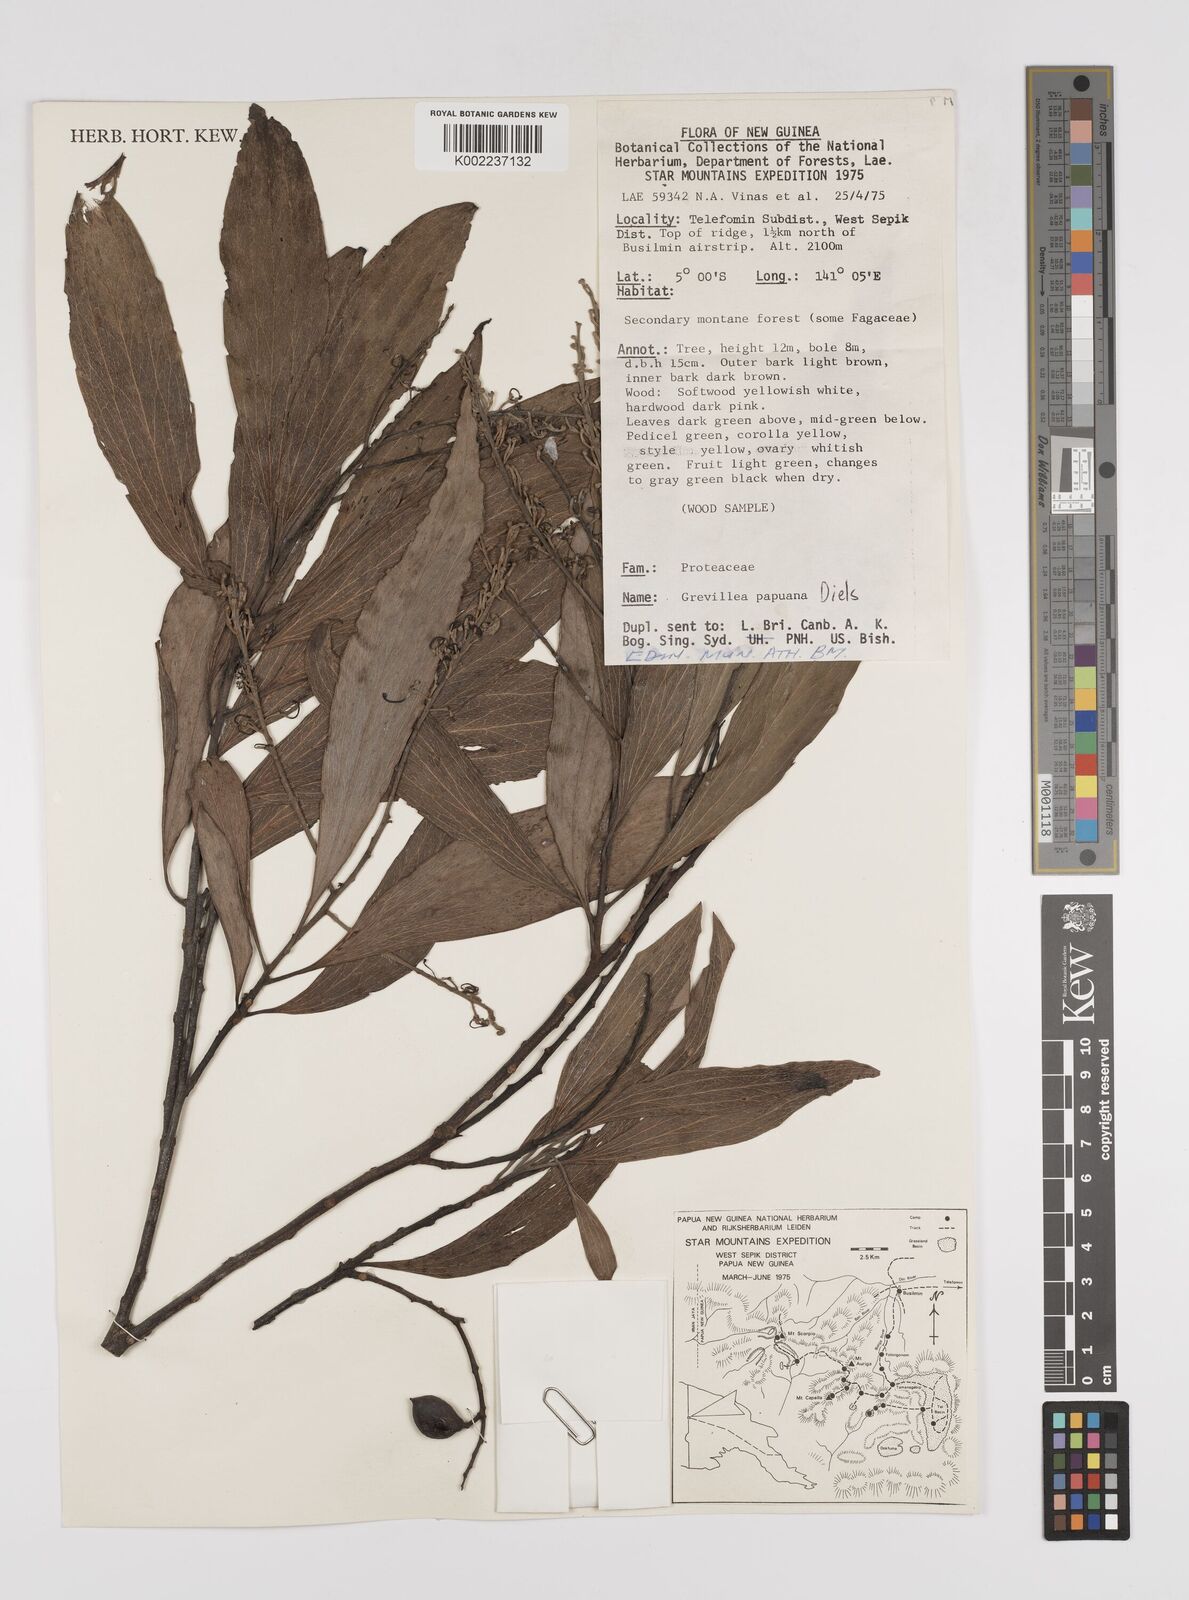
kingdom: Plantae
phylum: Tracheophyta
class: Magnoliopsida
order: Proteales
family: Proteaceae
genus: Grevillea
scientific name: Grevillea papuana
